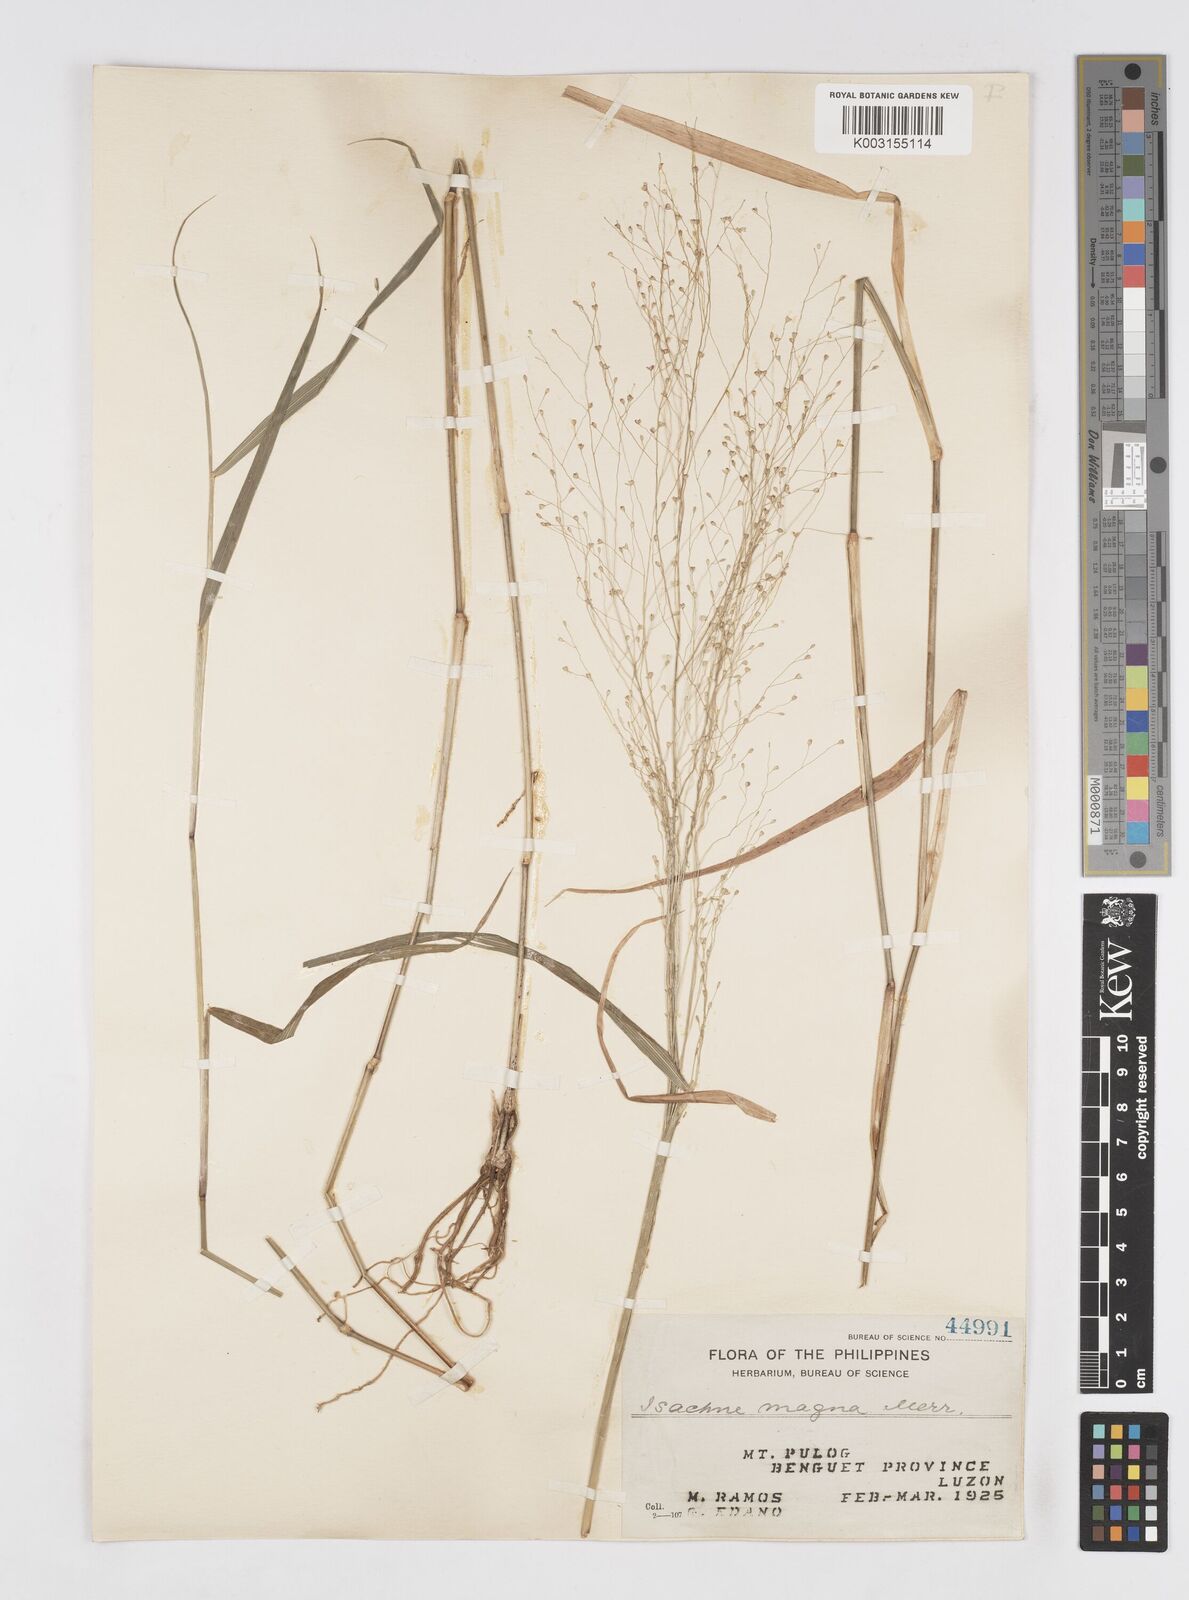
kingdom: Plantae
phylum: Tracheophyta
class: Liliopsida
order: Poales
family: Poaceae
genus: Isachne
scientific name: Isachne albens
